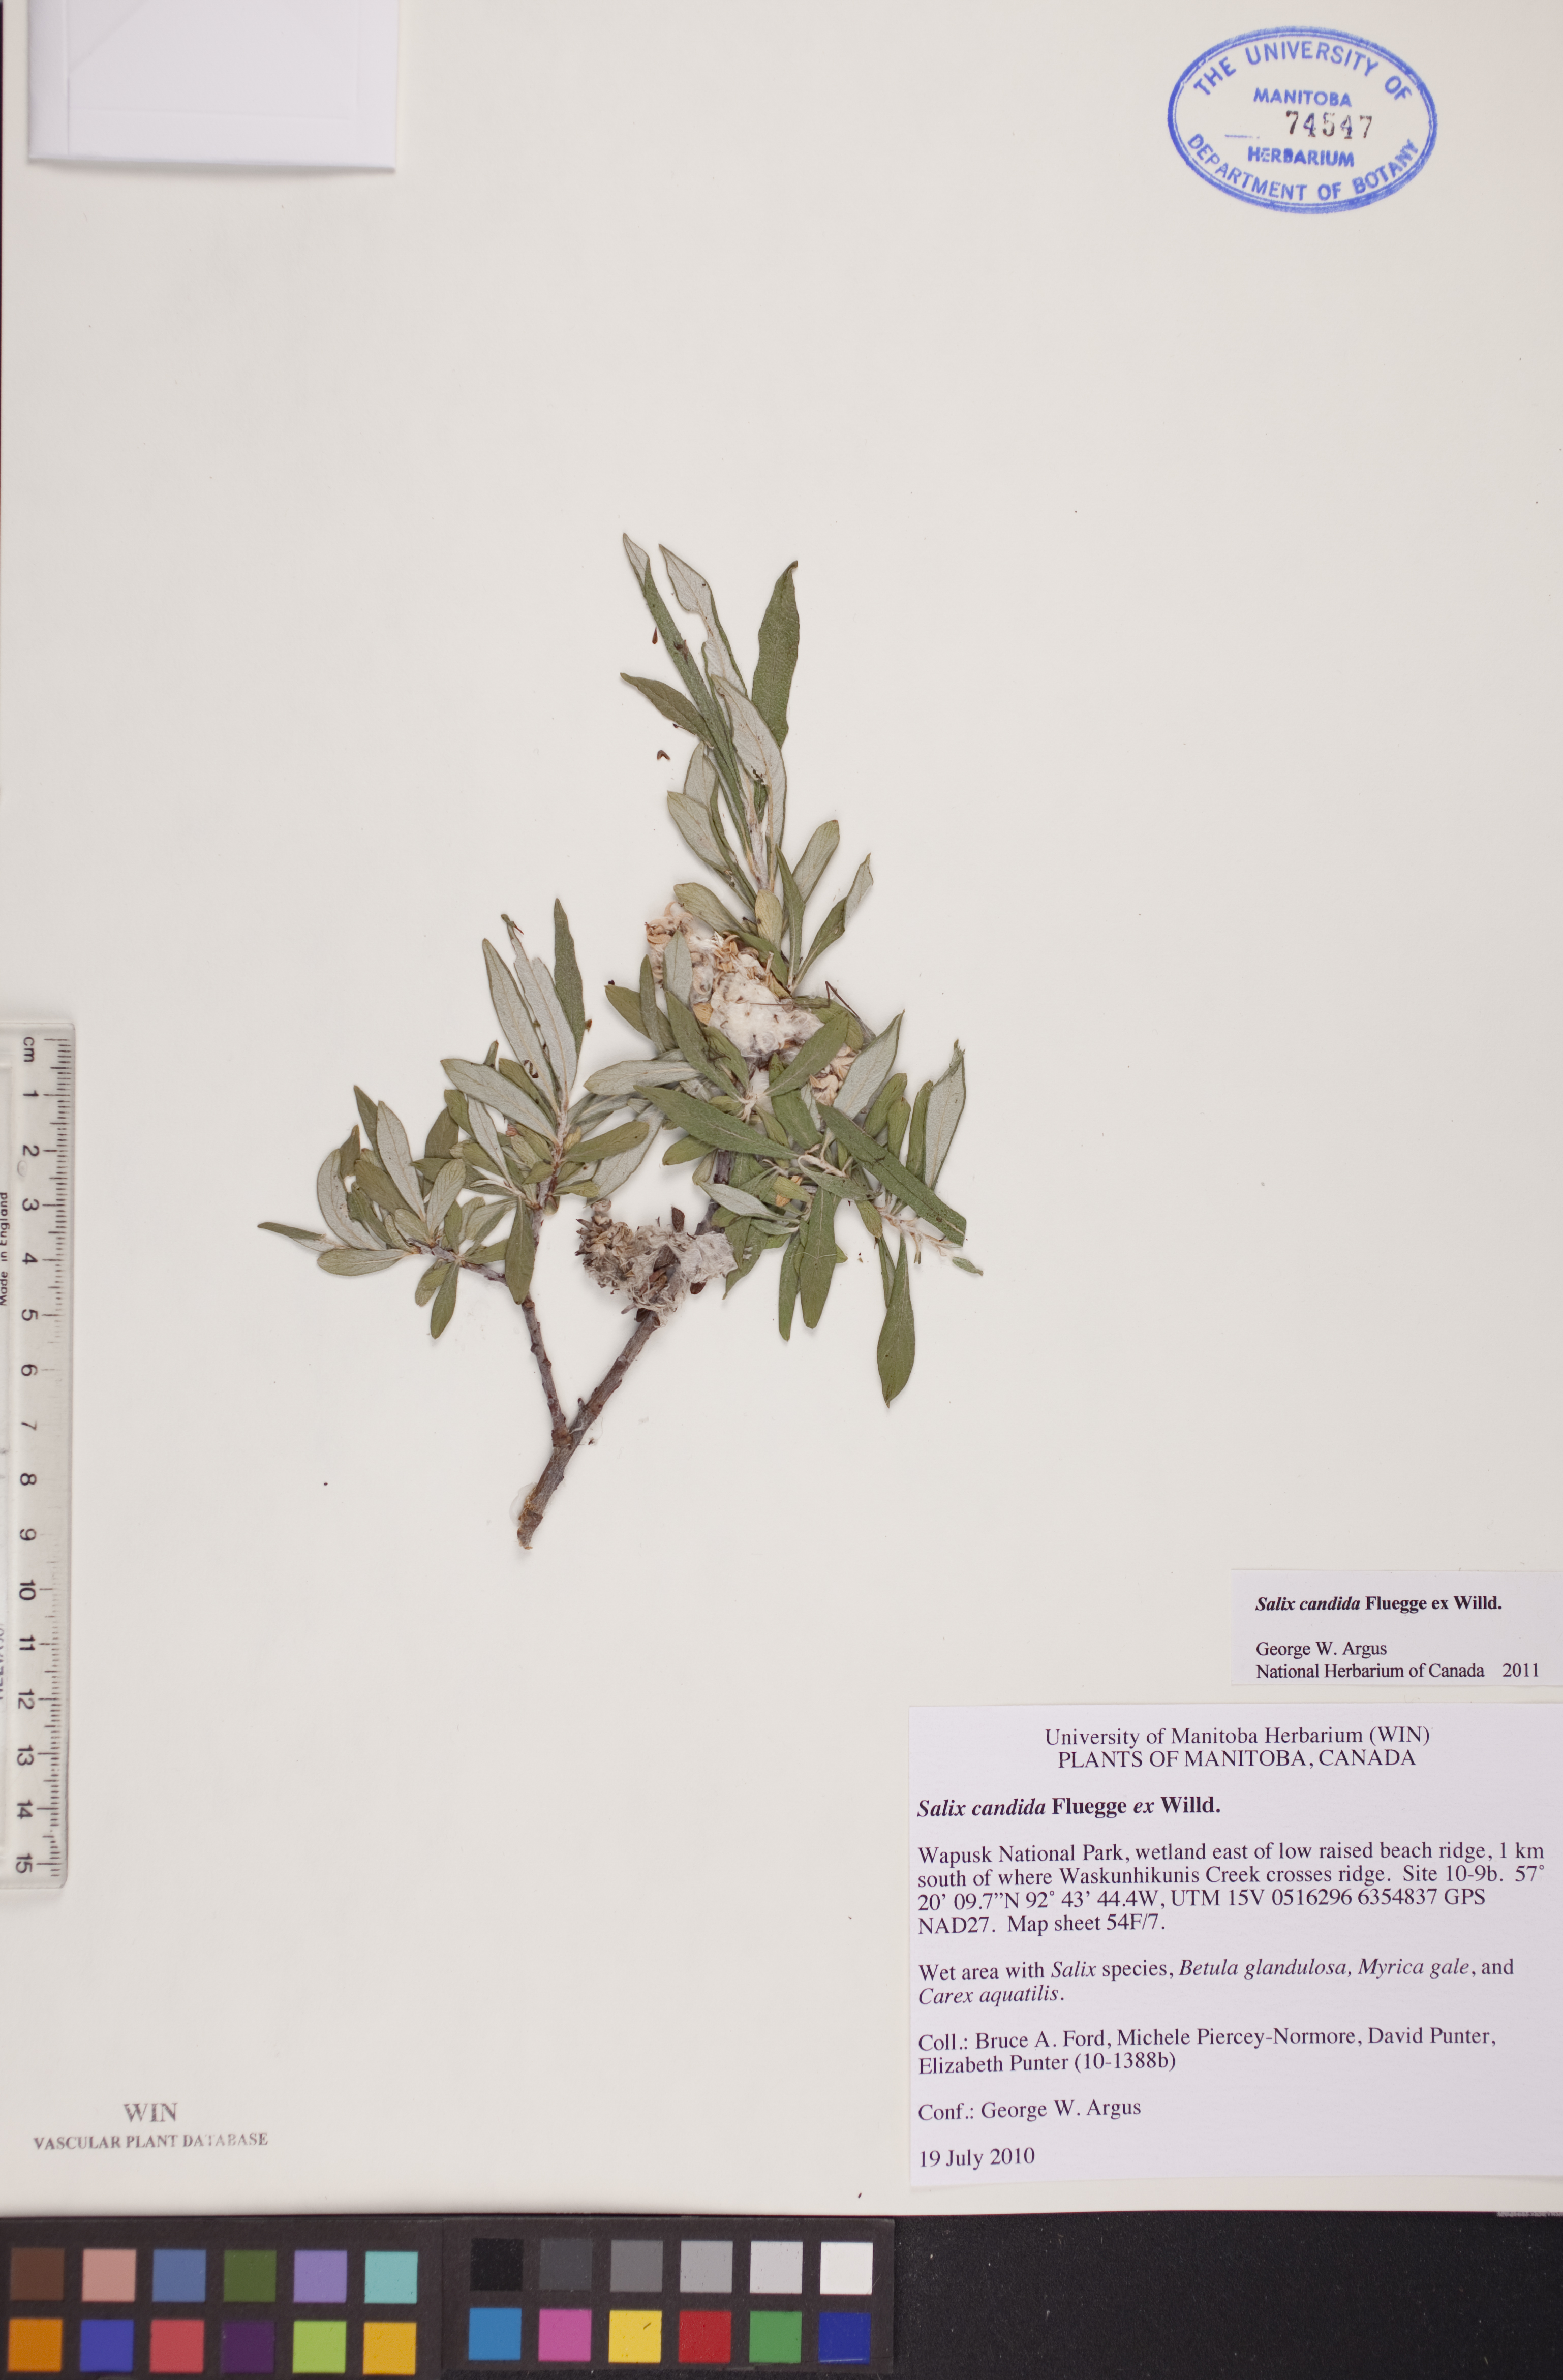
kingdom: Plantae
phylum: Tracheophyta
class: Magnoliopsida
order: Malpighiales
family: Salicaceae
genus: Salix
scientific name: Salix candida
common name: Hoary willow
